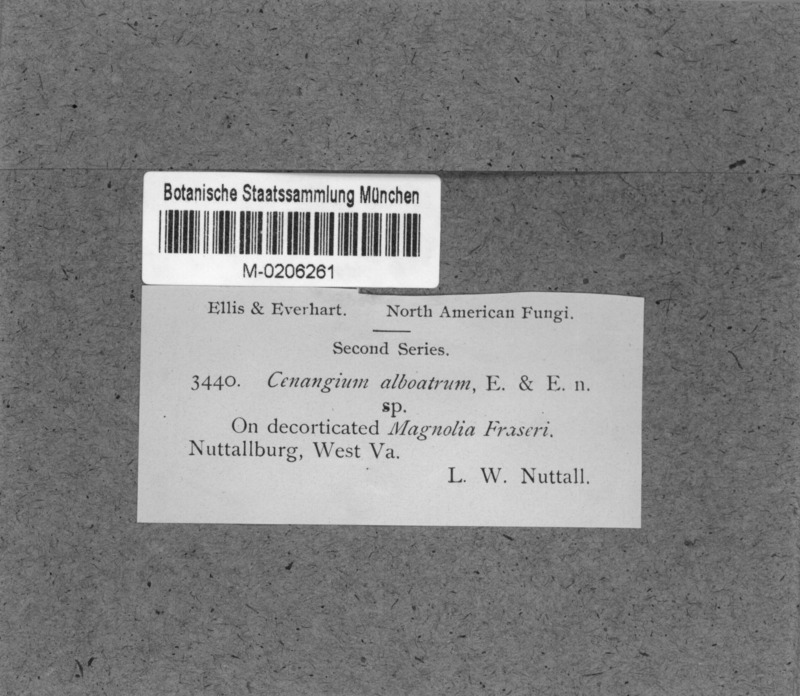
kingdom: Fungi
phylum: Ascomycota
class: Leotiomycetes
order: Helotiales
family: Cenangiaceae
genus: Cenangium
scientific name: Cenangium
